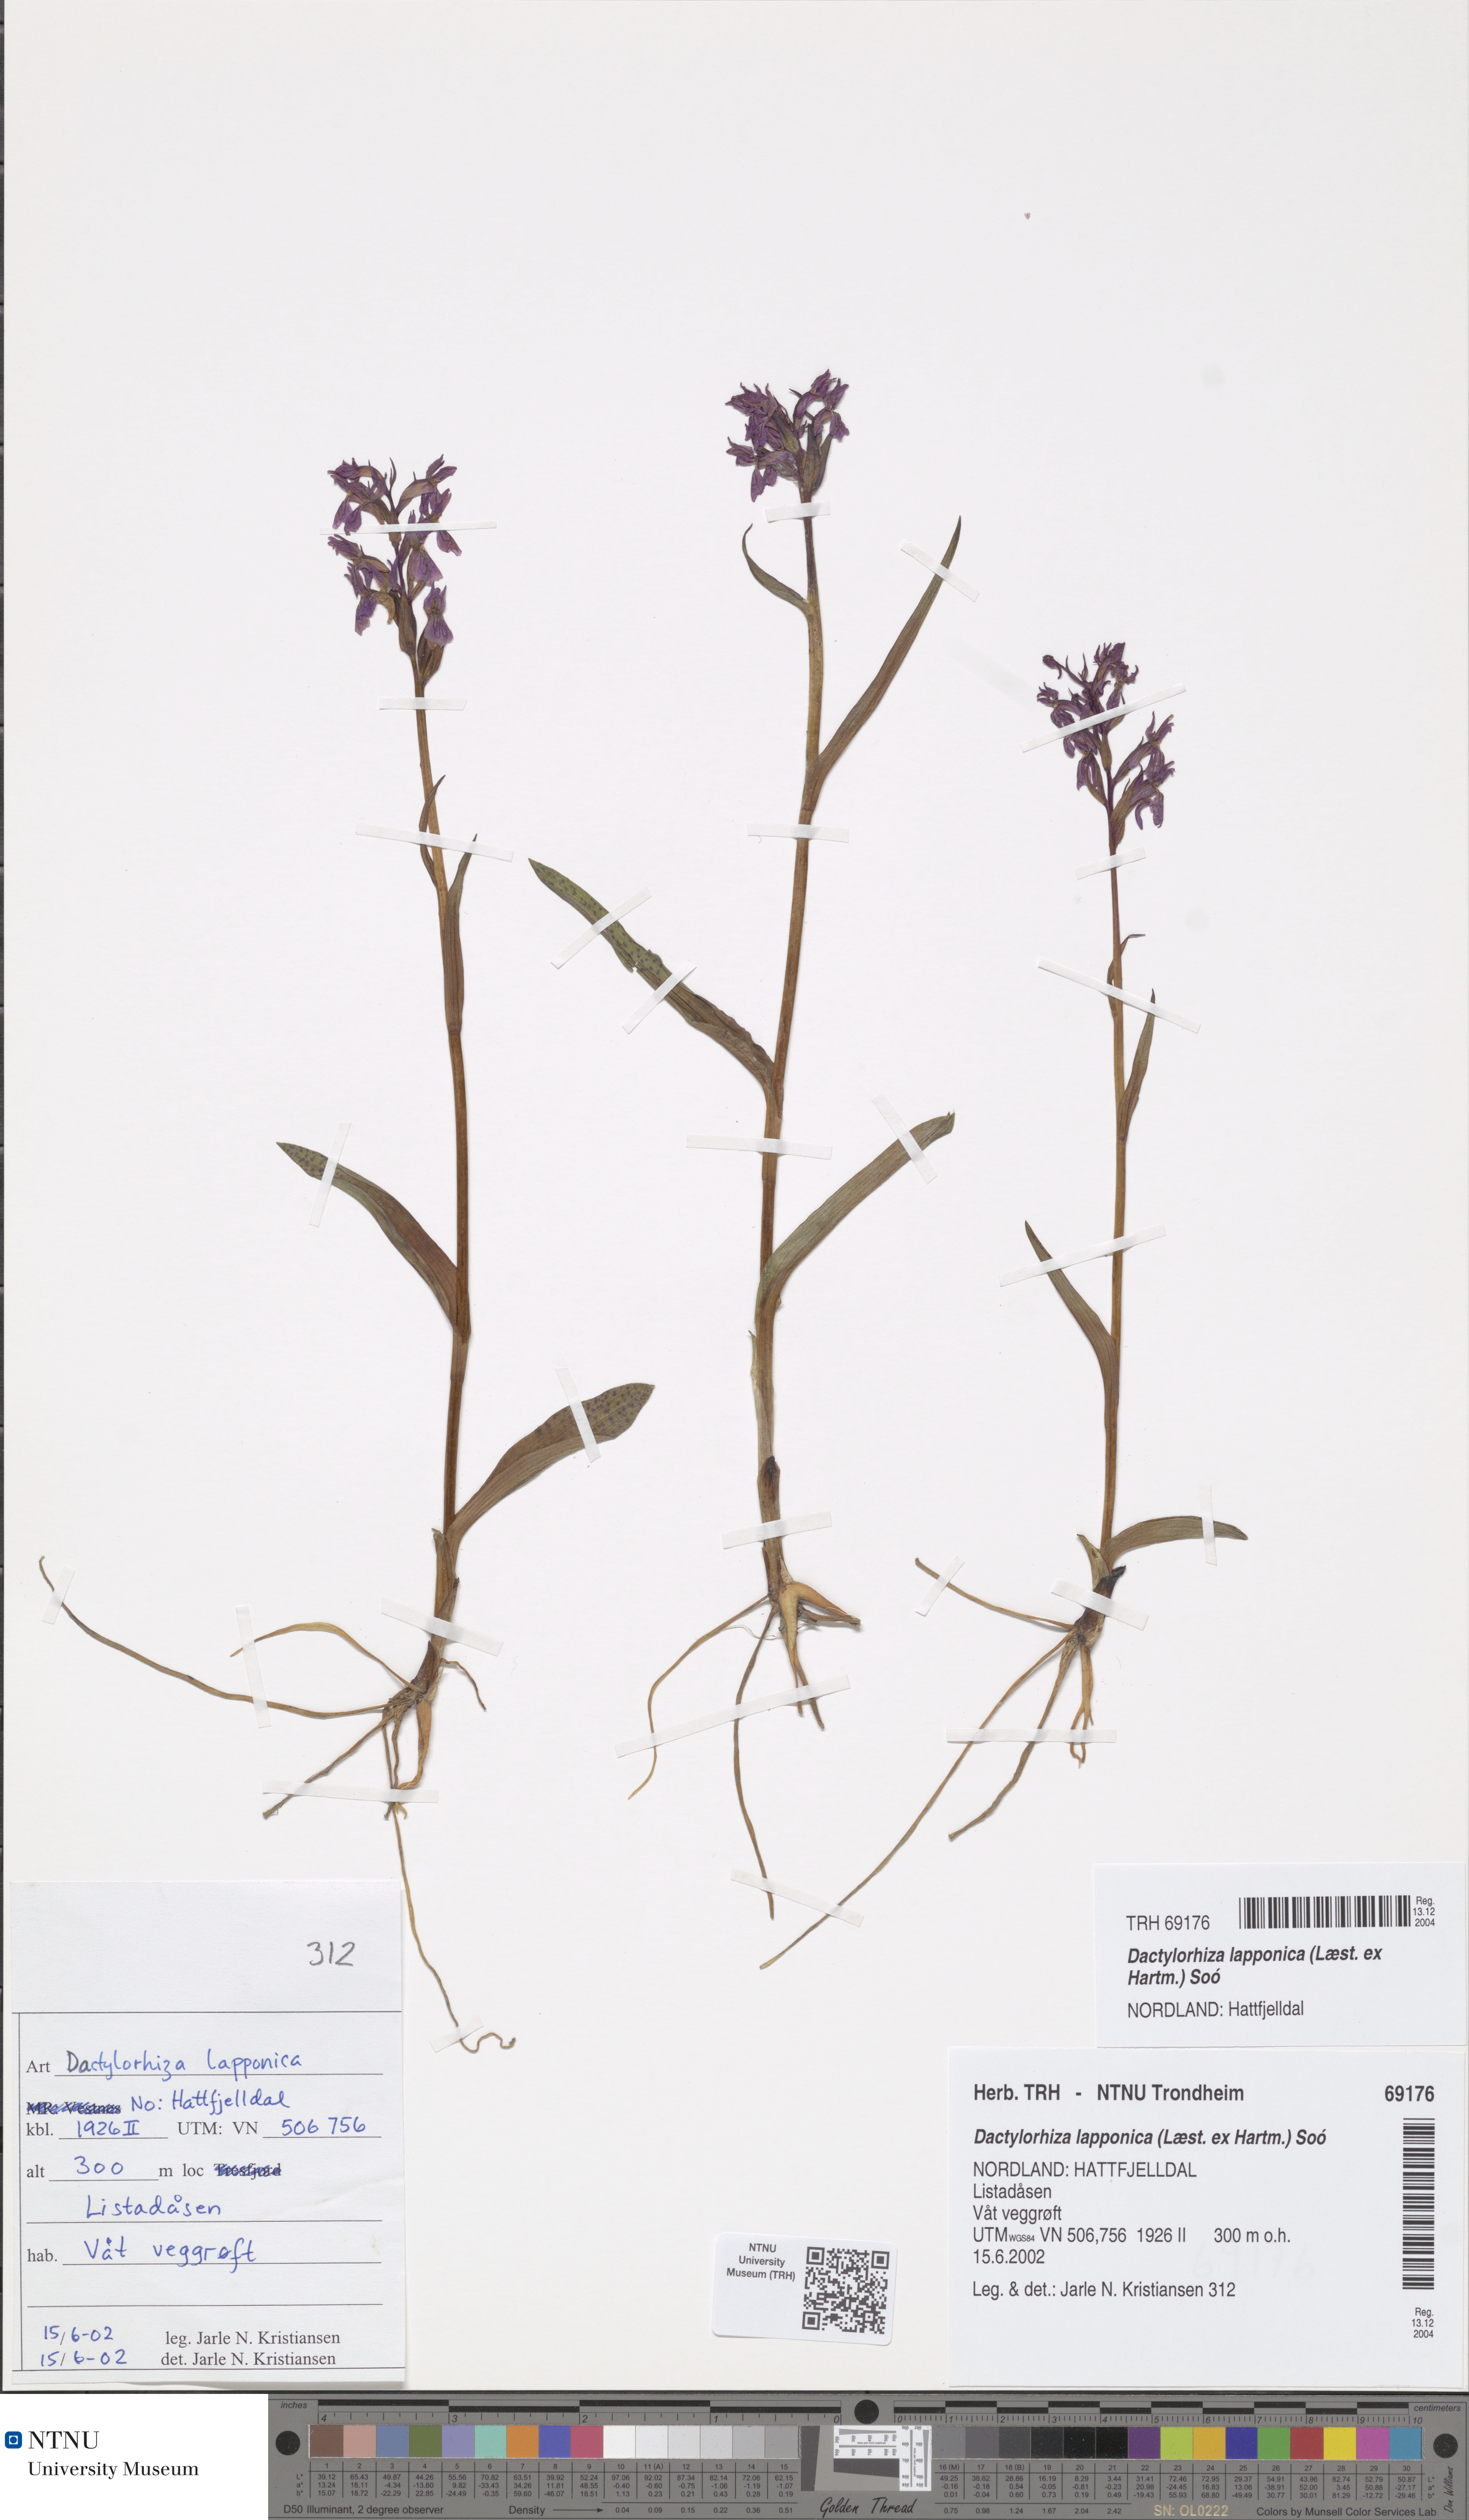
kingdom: Plantae
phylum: Tracheophyta
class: Liliopsida
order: Asparagales
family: Orchidaceae
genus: Dactylorhiza
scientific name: Dactylorhiza majalis
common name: Marsh orchid
